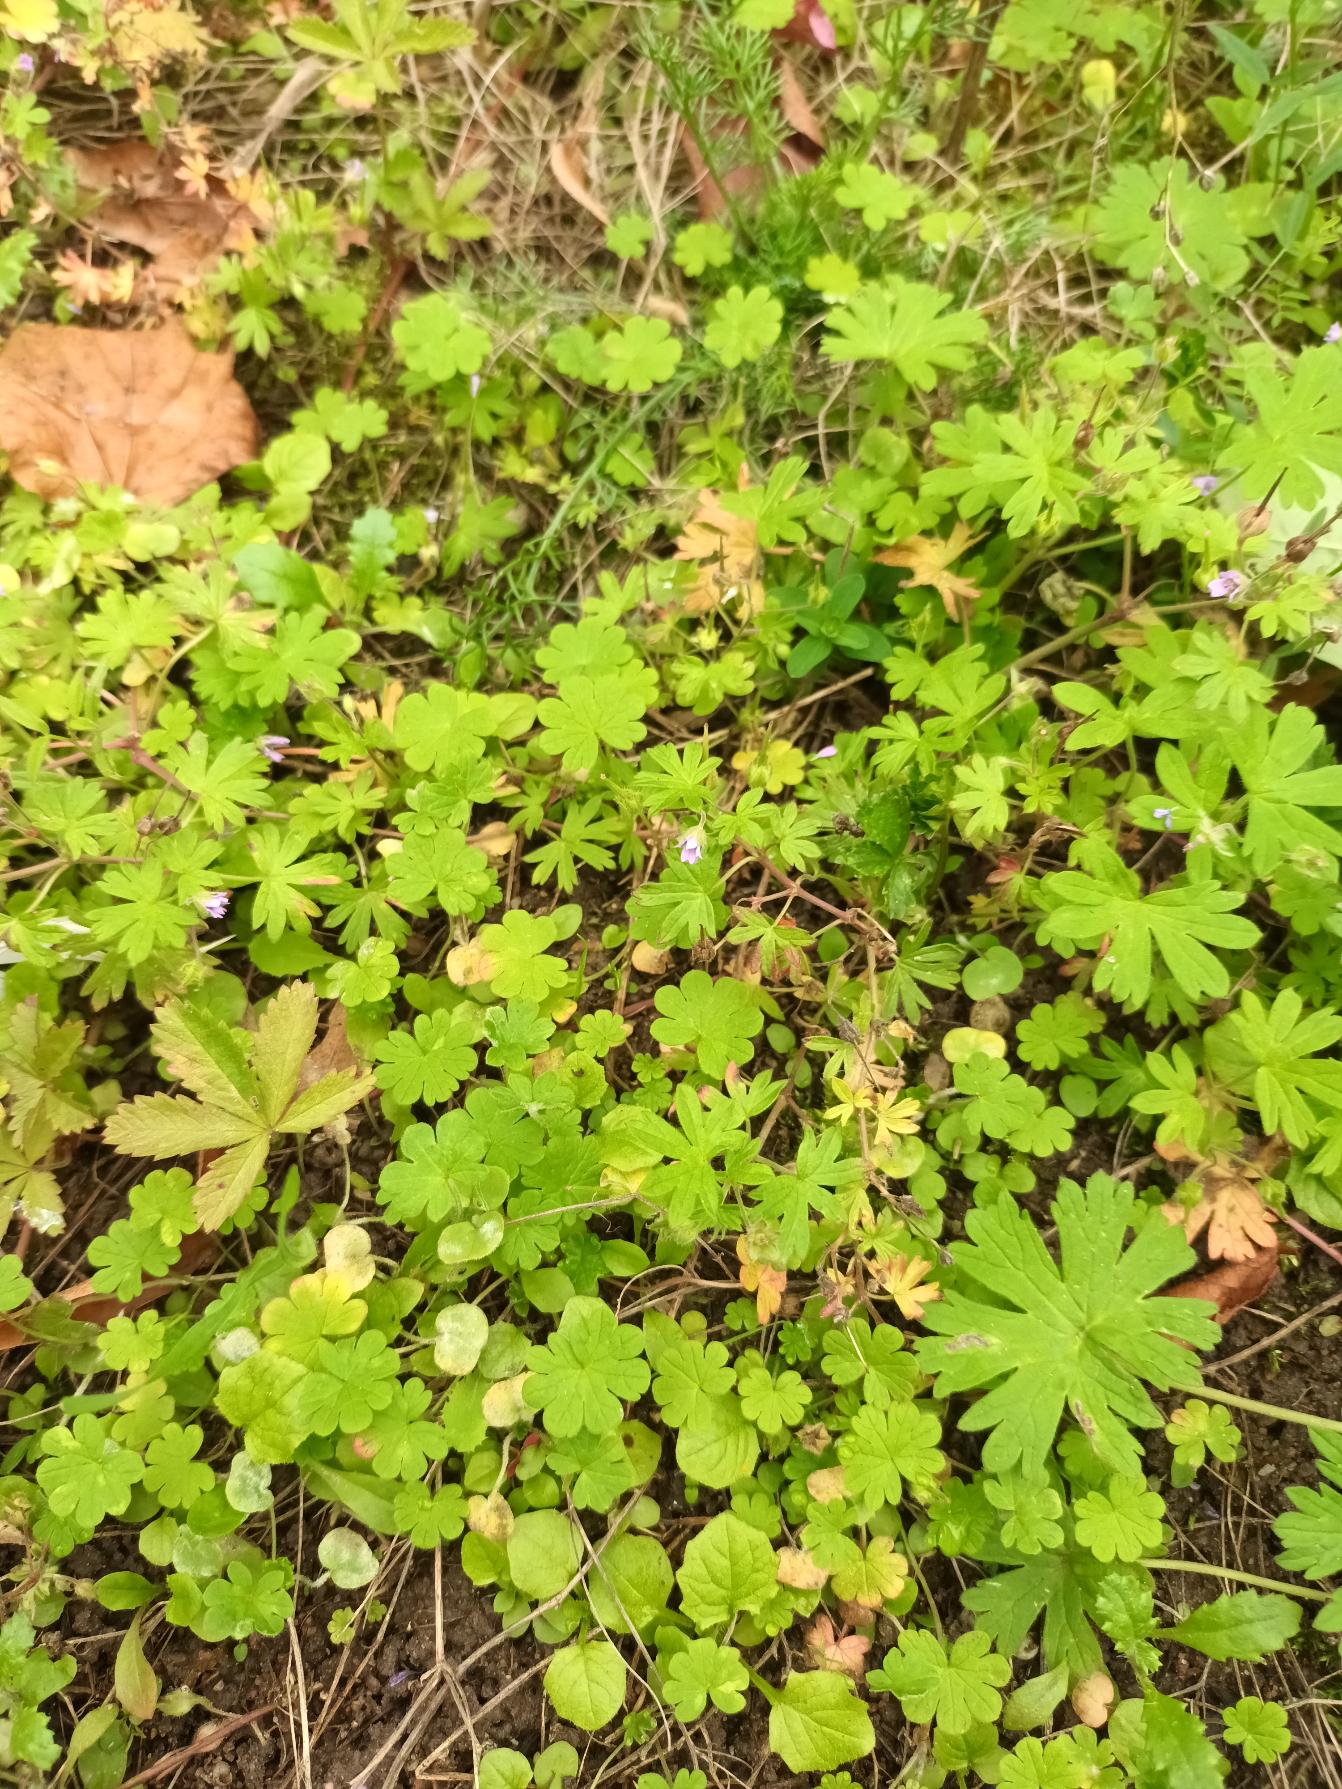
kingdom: Plantae
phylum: Tracheophyta
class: Magnoliopsida
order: Geraniales
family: Geraniaceae
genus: Geranium
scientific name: Geranium pusillum
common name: Liden storkenæb
